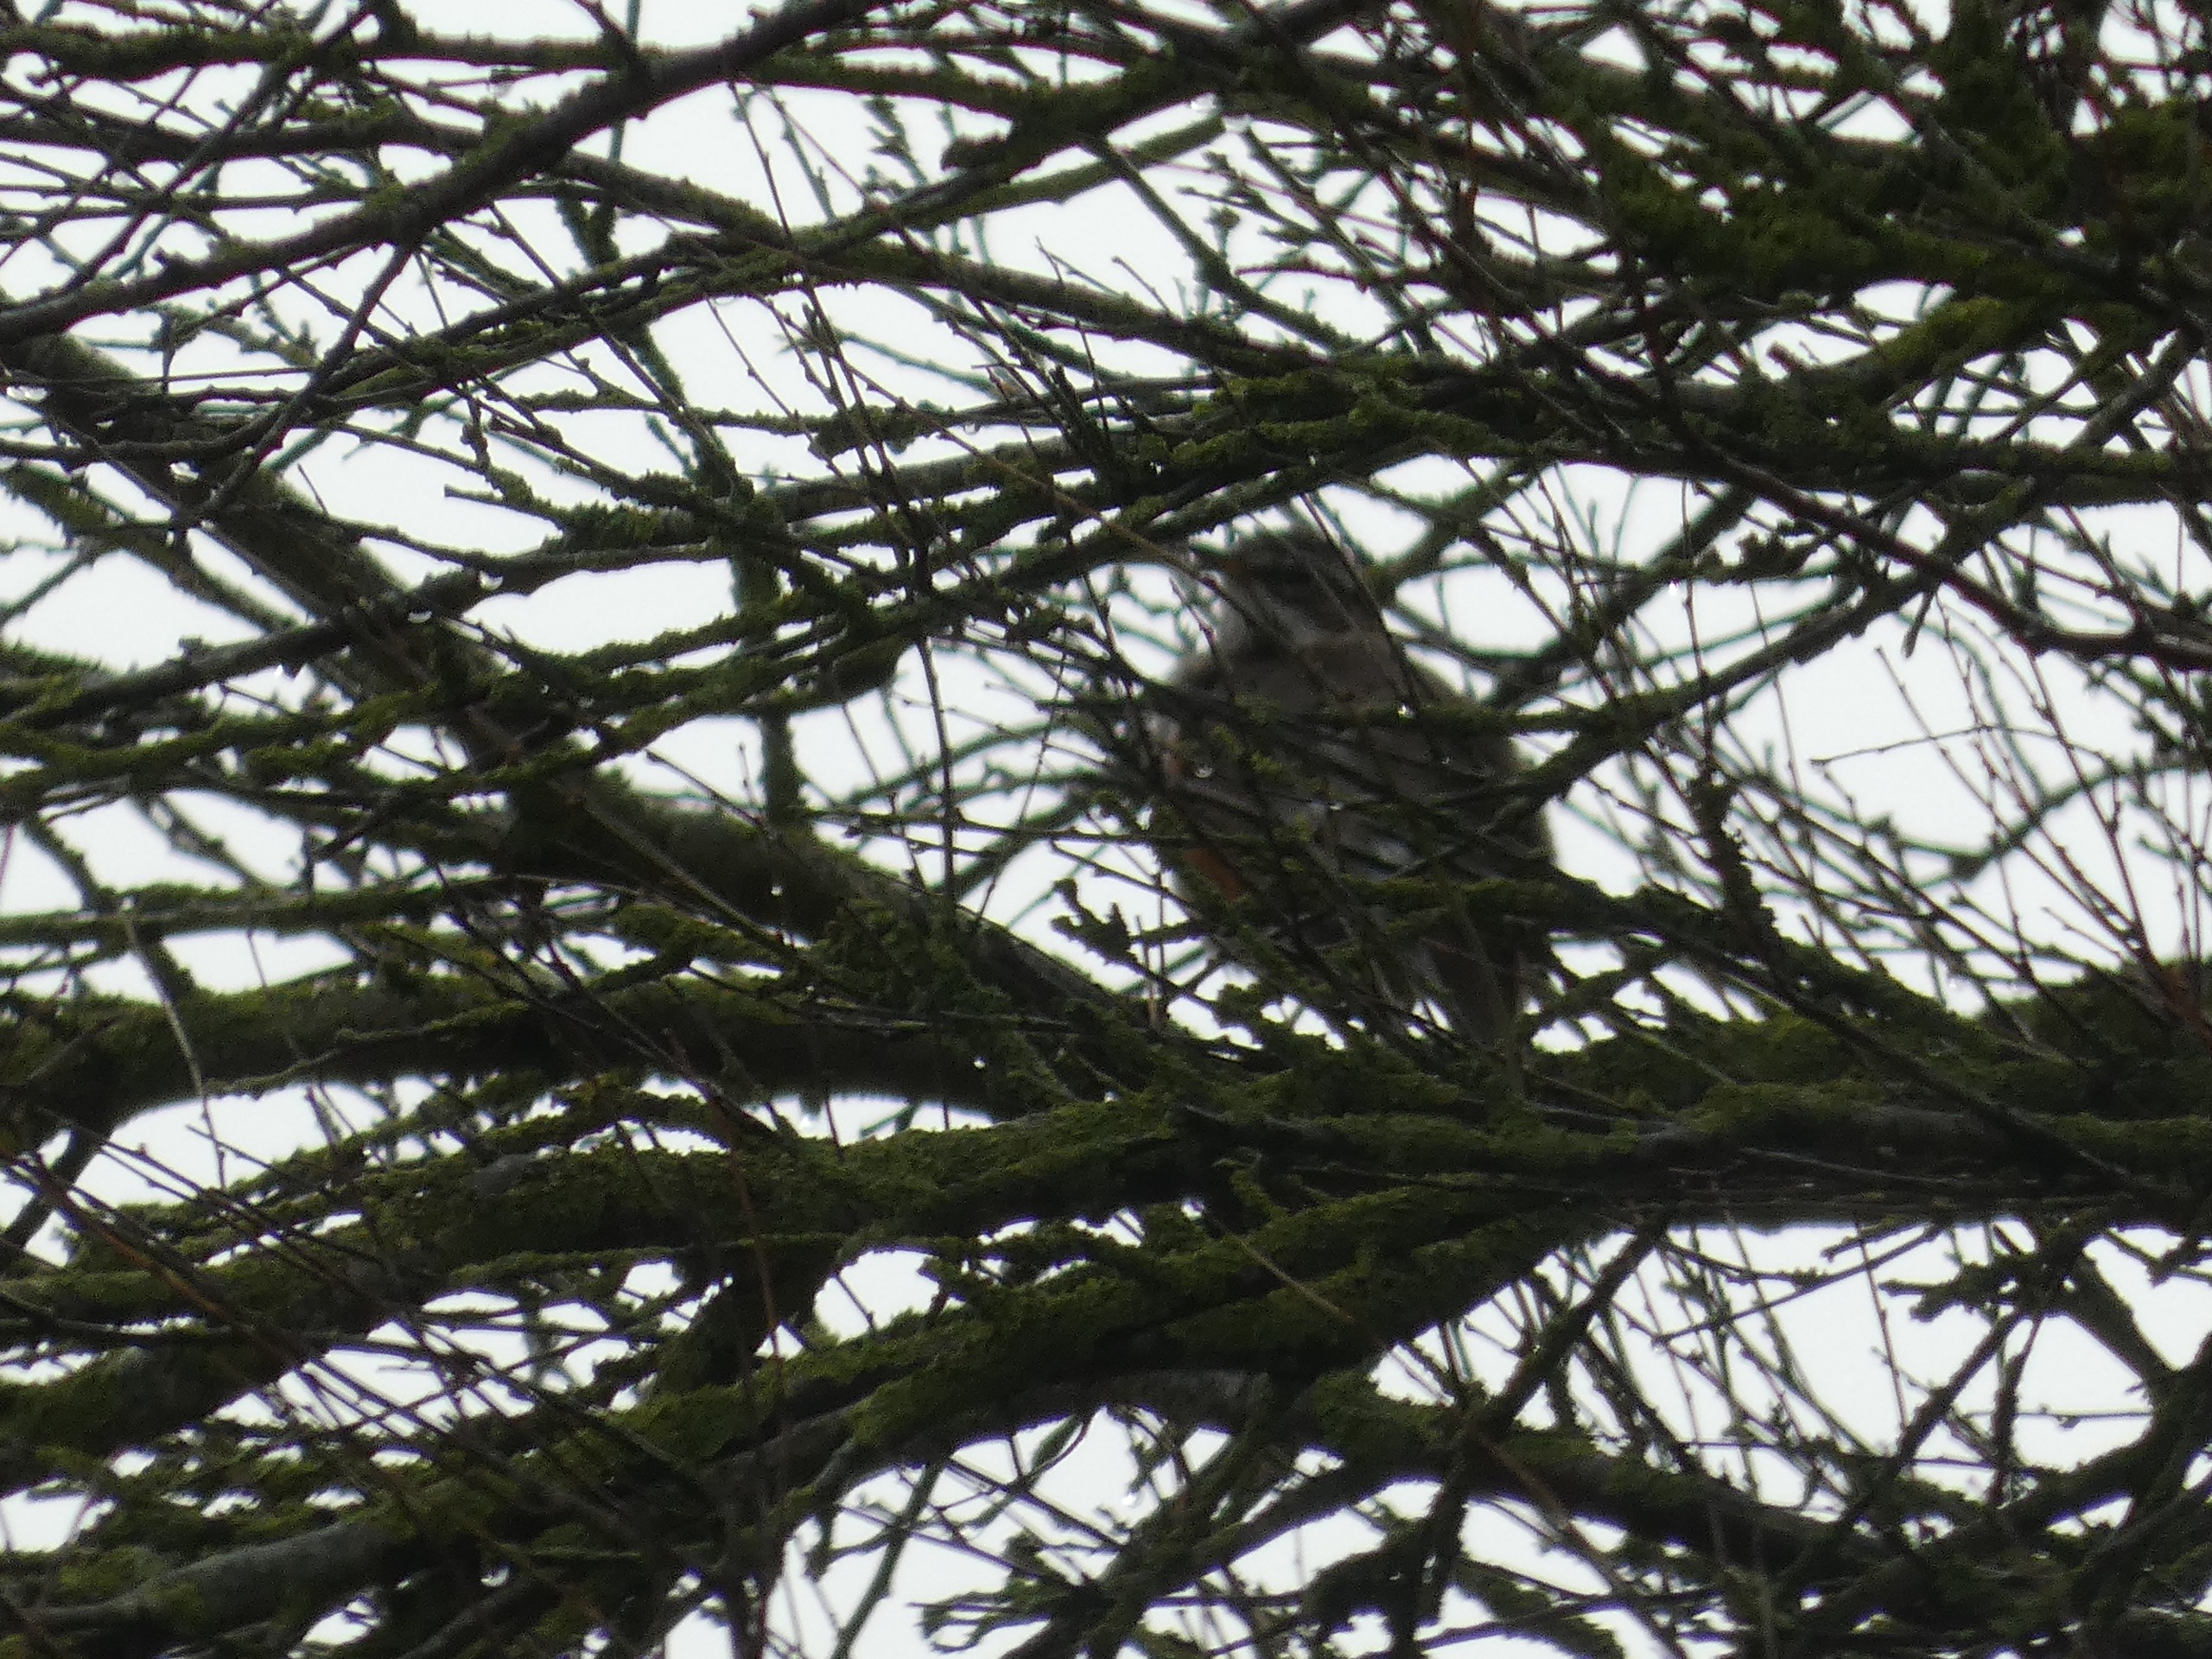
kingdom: Animalia
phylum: Chordata
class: Aves
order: Passeriformes
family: Turdidae
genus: Turdus
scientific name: Turdus iliacus
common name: Vindrossel
